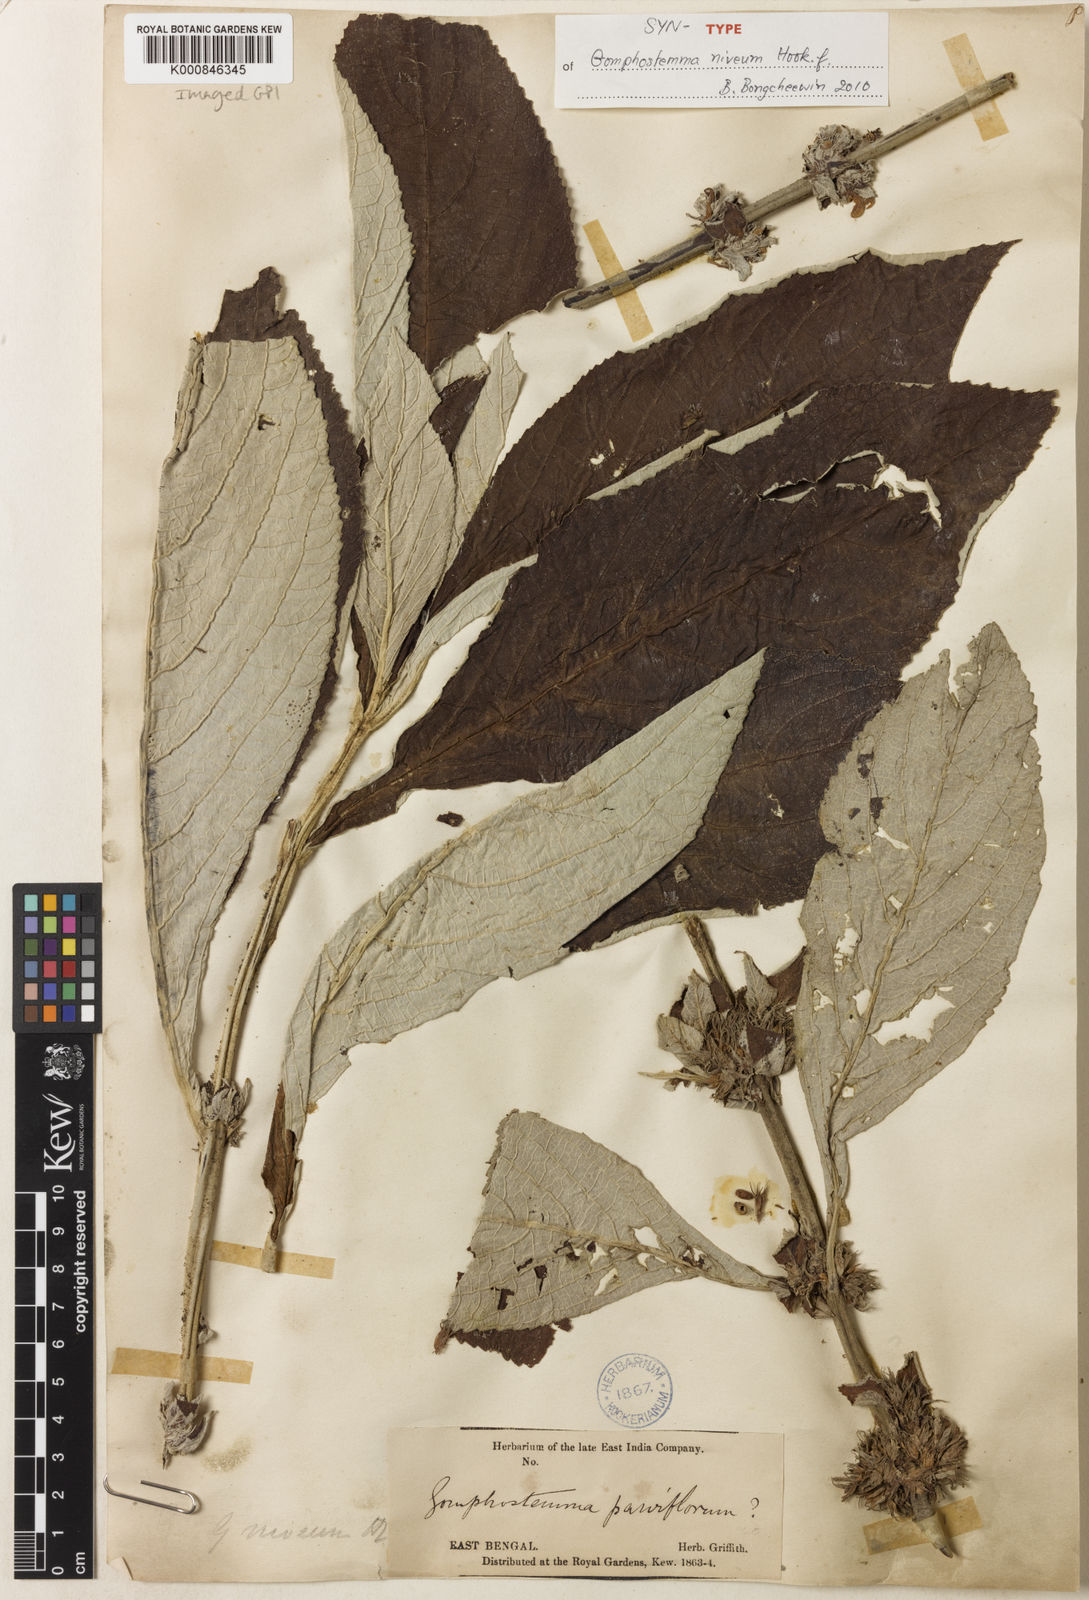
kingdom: Plantae
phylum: Tracheophyta
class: Magnoliopsida
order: Lamiales
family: Lamiaceae
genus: Gomphostemma
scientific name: Gomphostemma niveum
